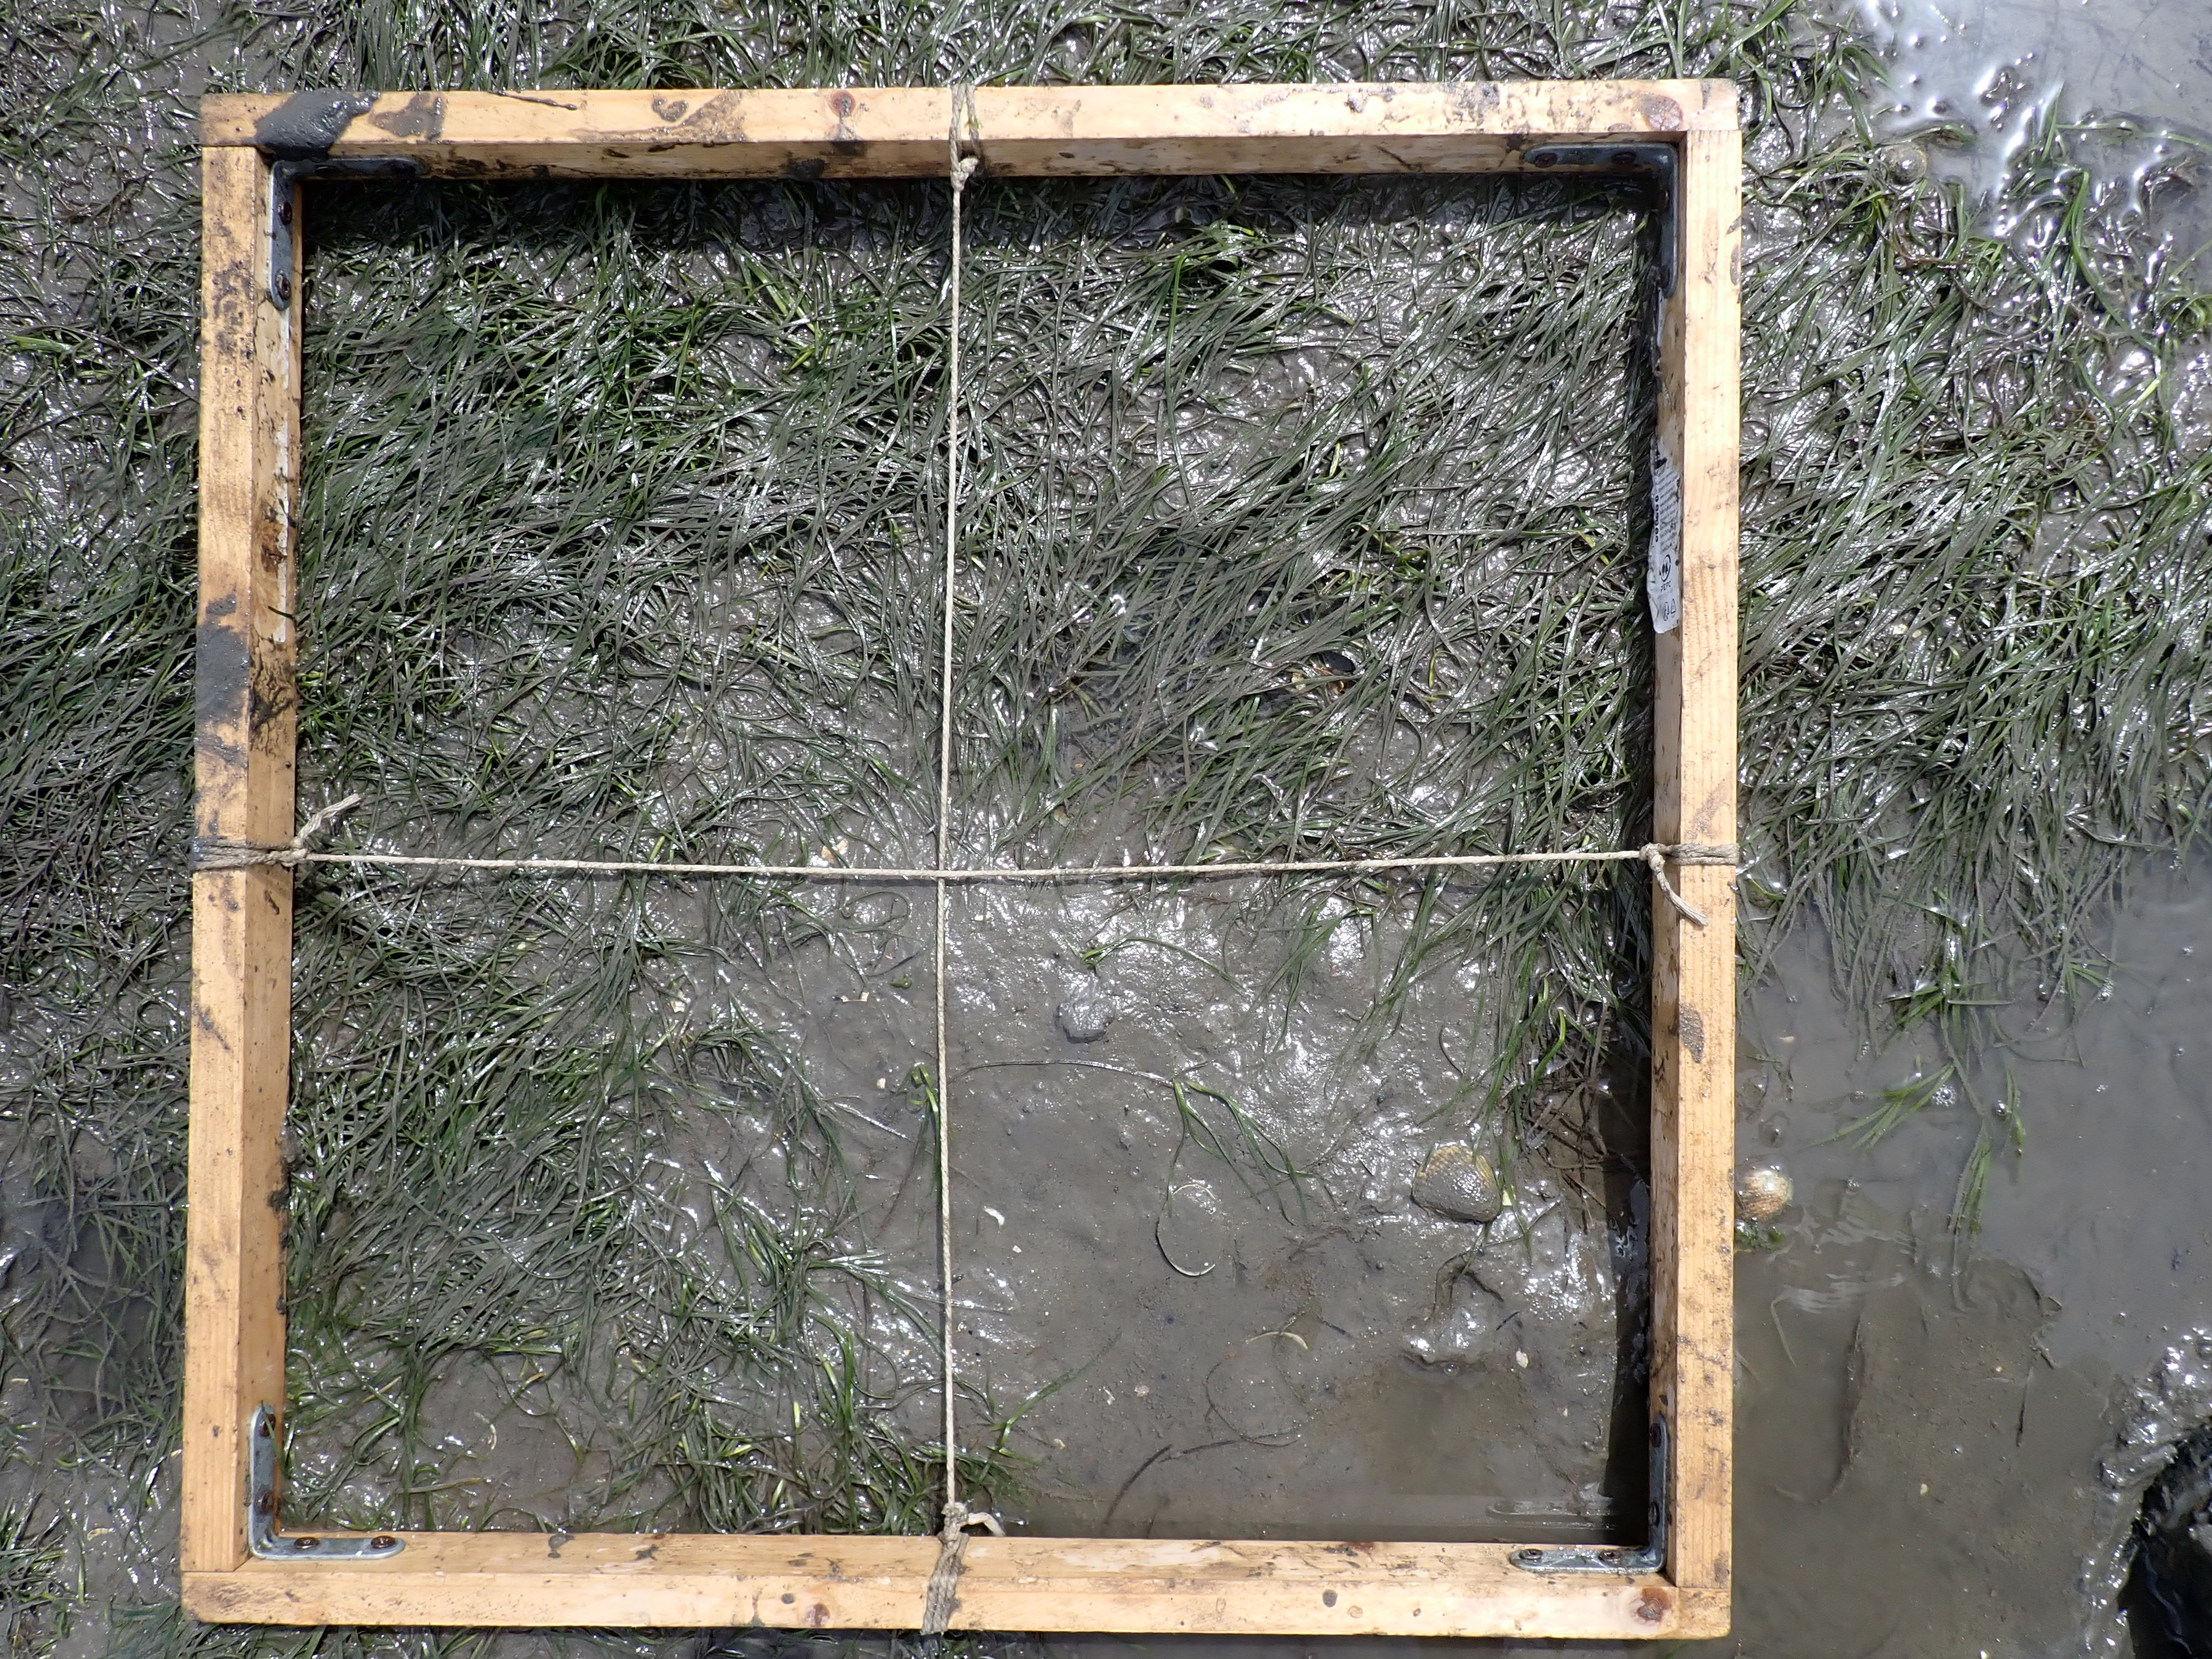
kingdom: Plantae
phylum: Tracheophyta
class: Liliopsida
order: Alismatales
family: Zosteraceae
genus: Zostera
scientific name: Zostera noltii
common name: Dwarf eelgrass
